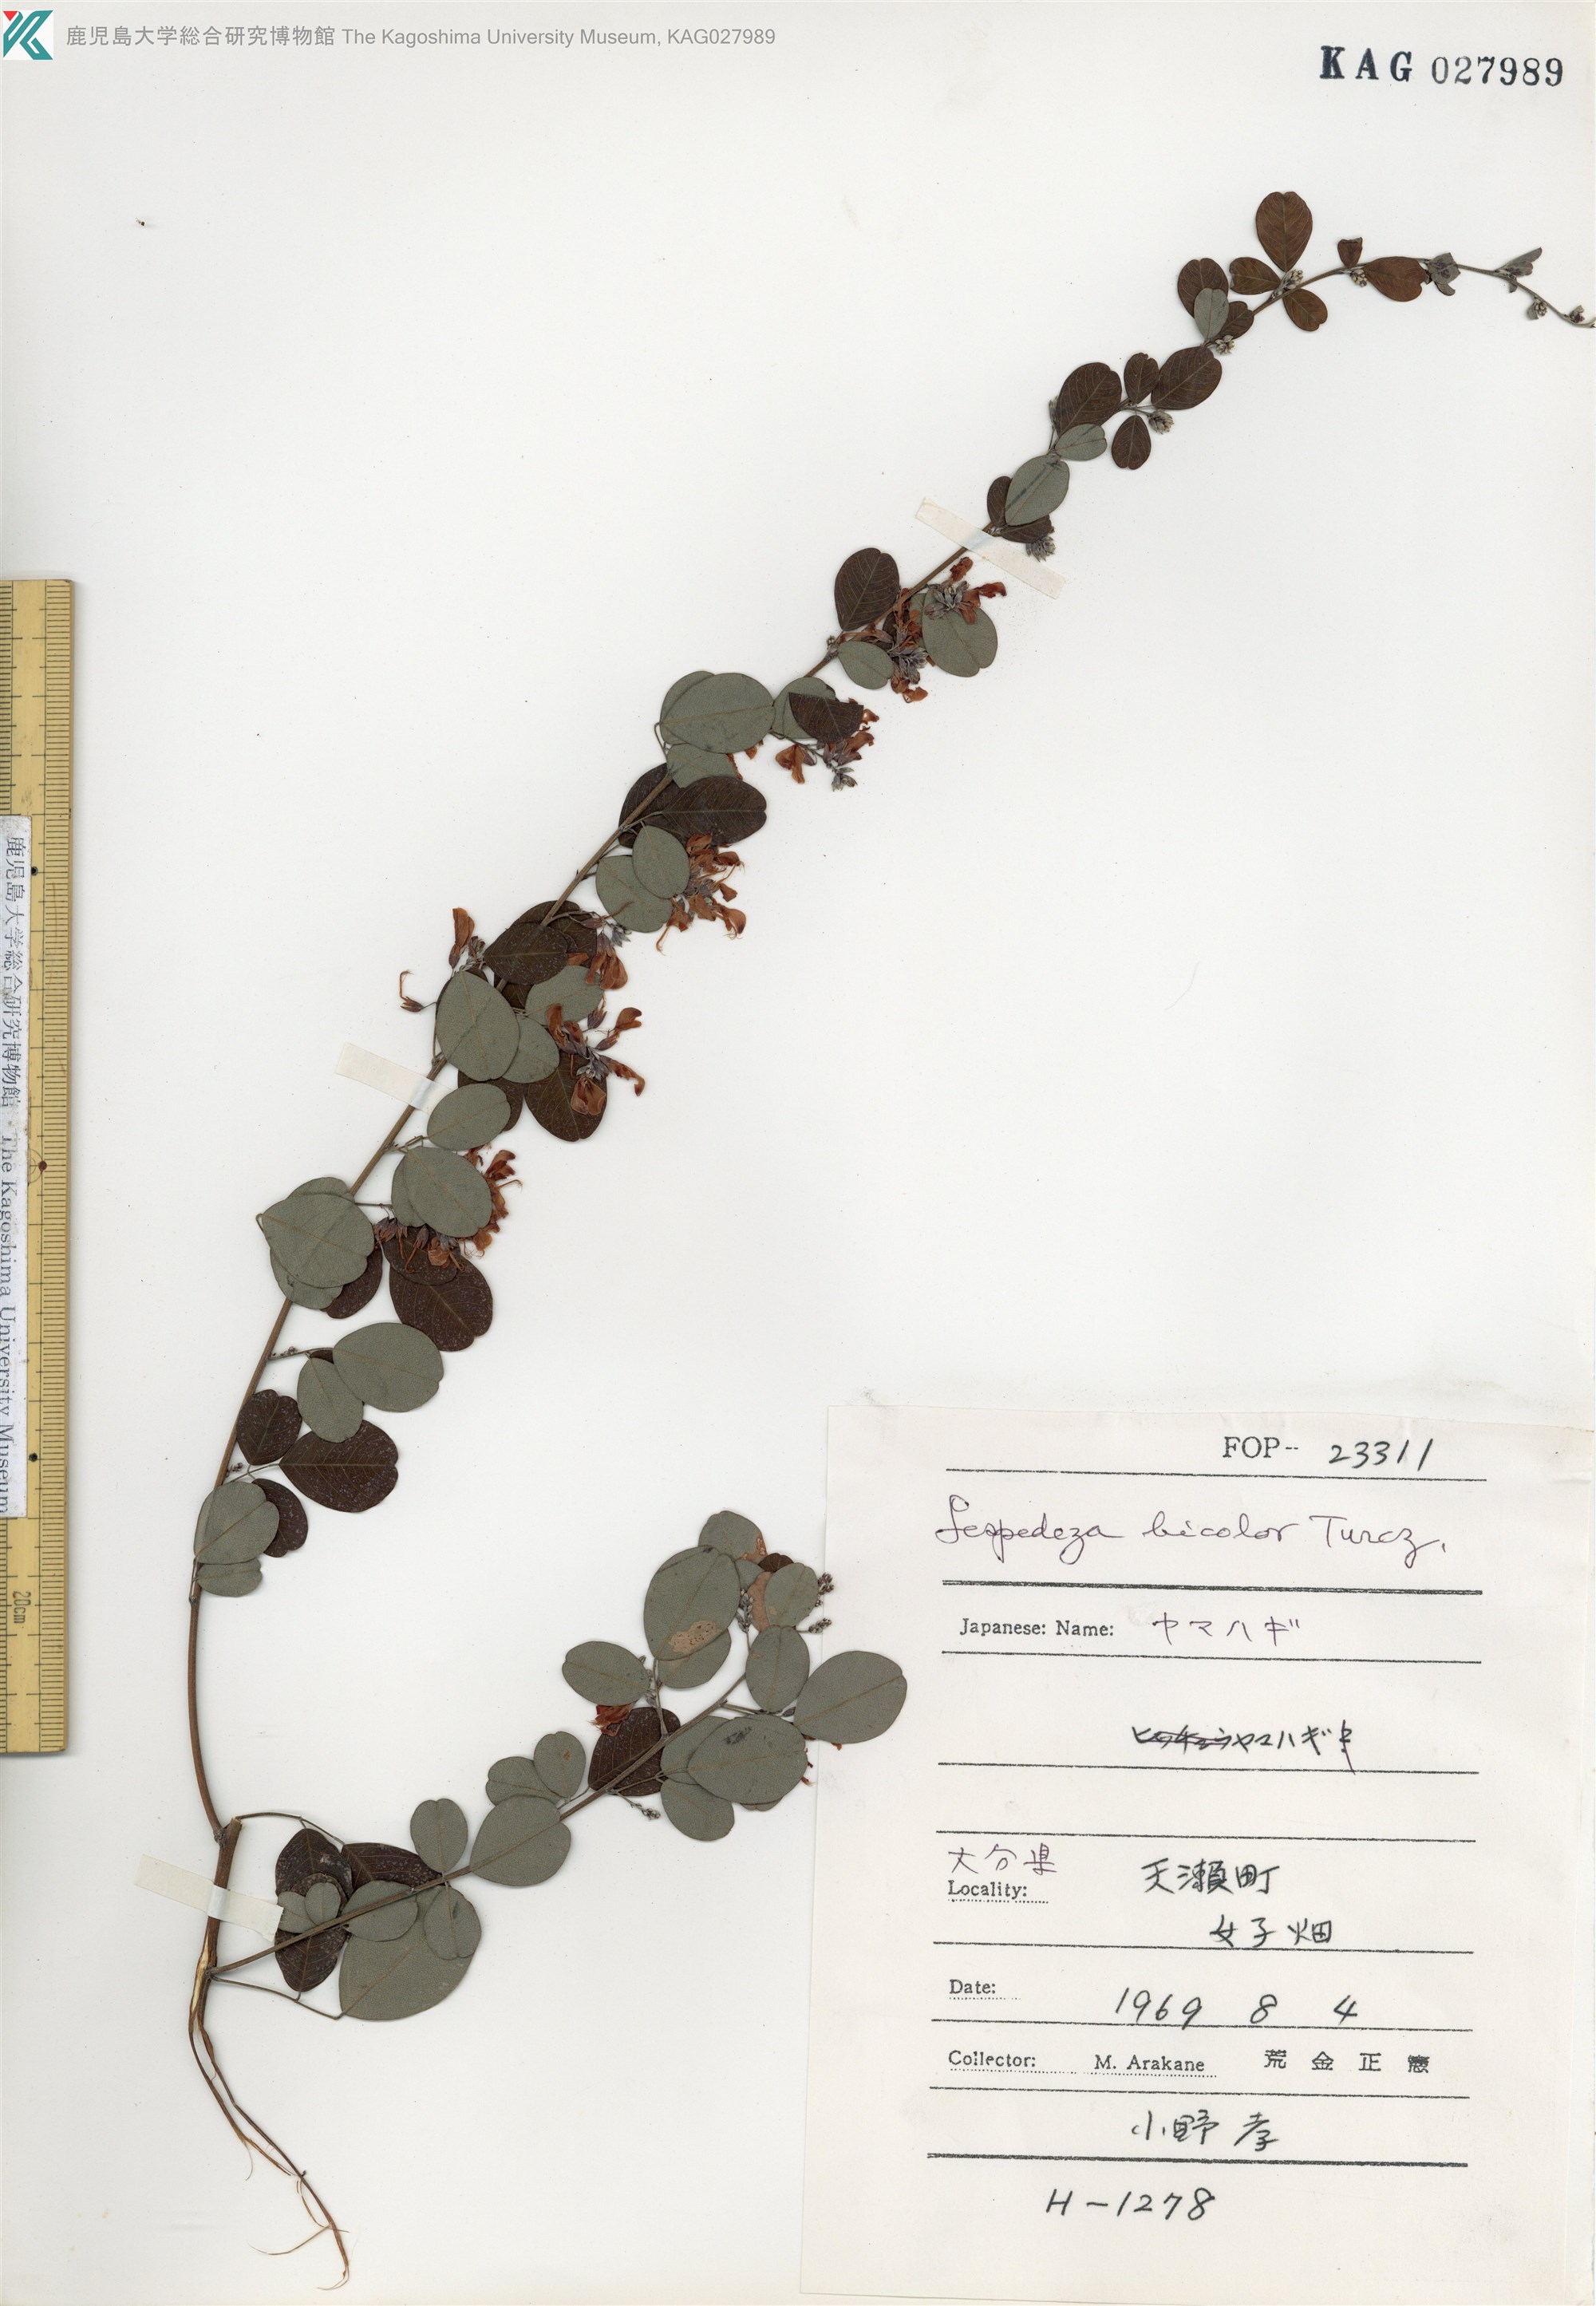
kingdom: Plantae
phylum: Tracheophyta
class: Magnoliopsida
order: Fabales
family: Fabaceae
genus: Lespedeza
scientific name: Lespedeza bicolor
